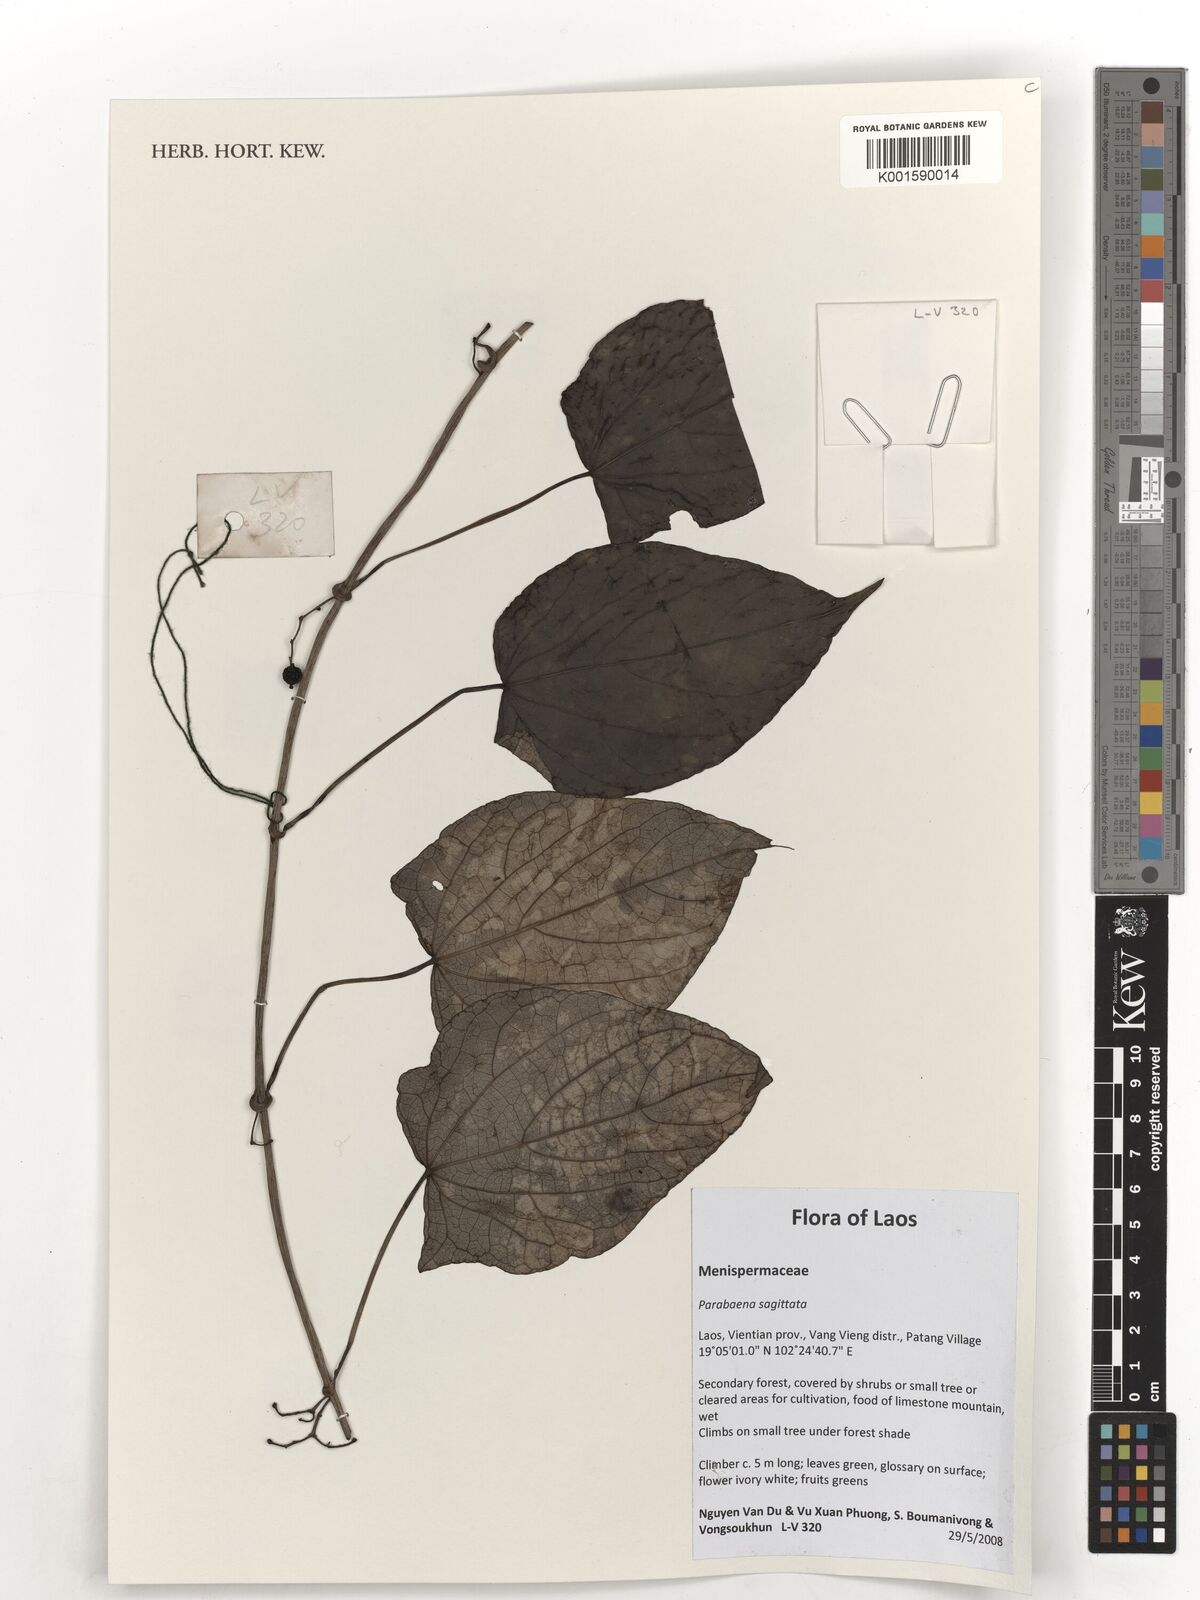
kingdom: Plantae
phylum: Tracheophyta
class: Magnoliopsida
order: Ranunculales
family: Menispermaceae
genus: Parabaena
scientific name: Parabaena sagittata
